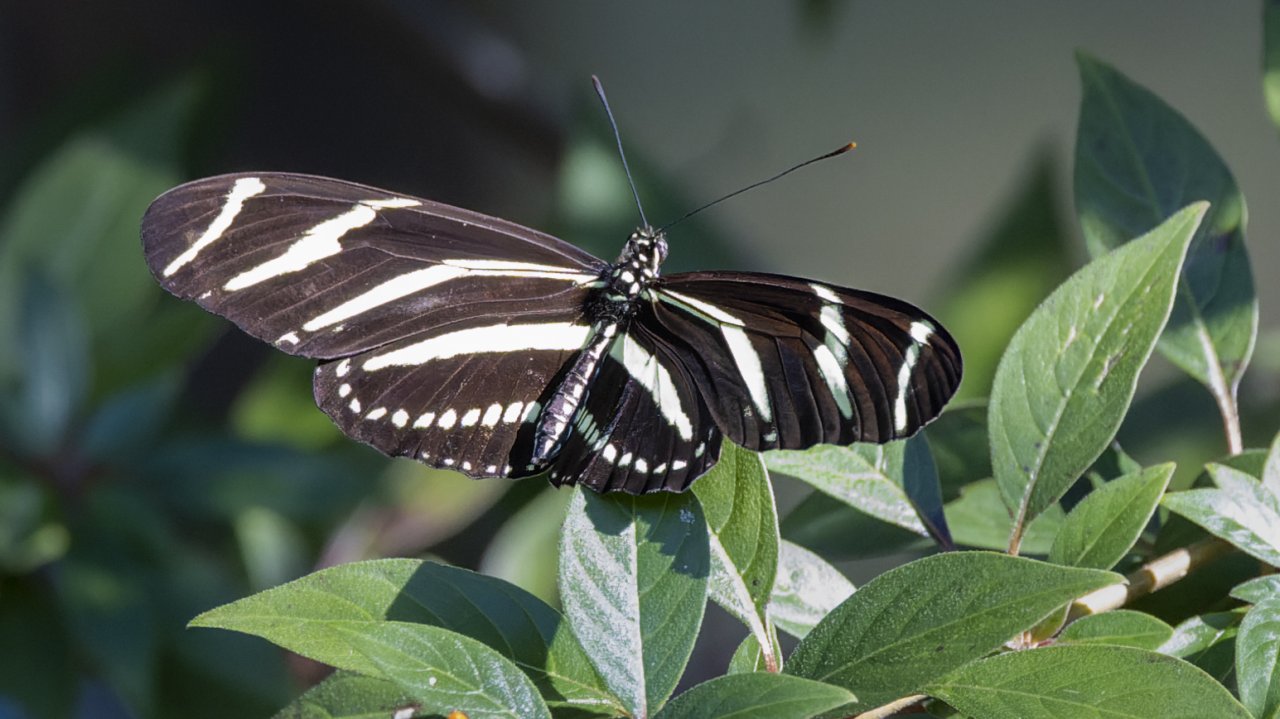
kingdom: Animalia
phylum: Arthropoda
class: Insecta
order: Lepidoptera
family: Nymphalidae
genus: Heliconius
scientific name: Heliconius charithonia
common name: Zebra Longwing
